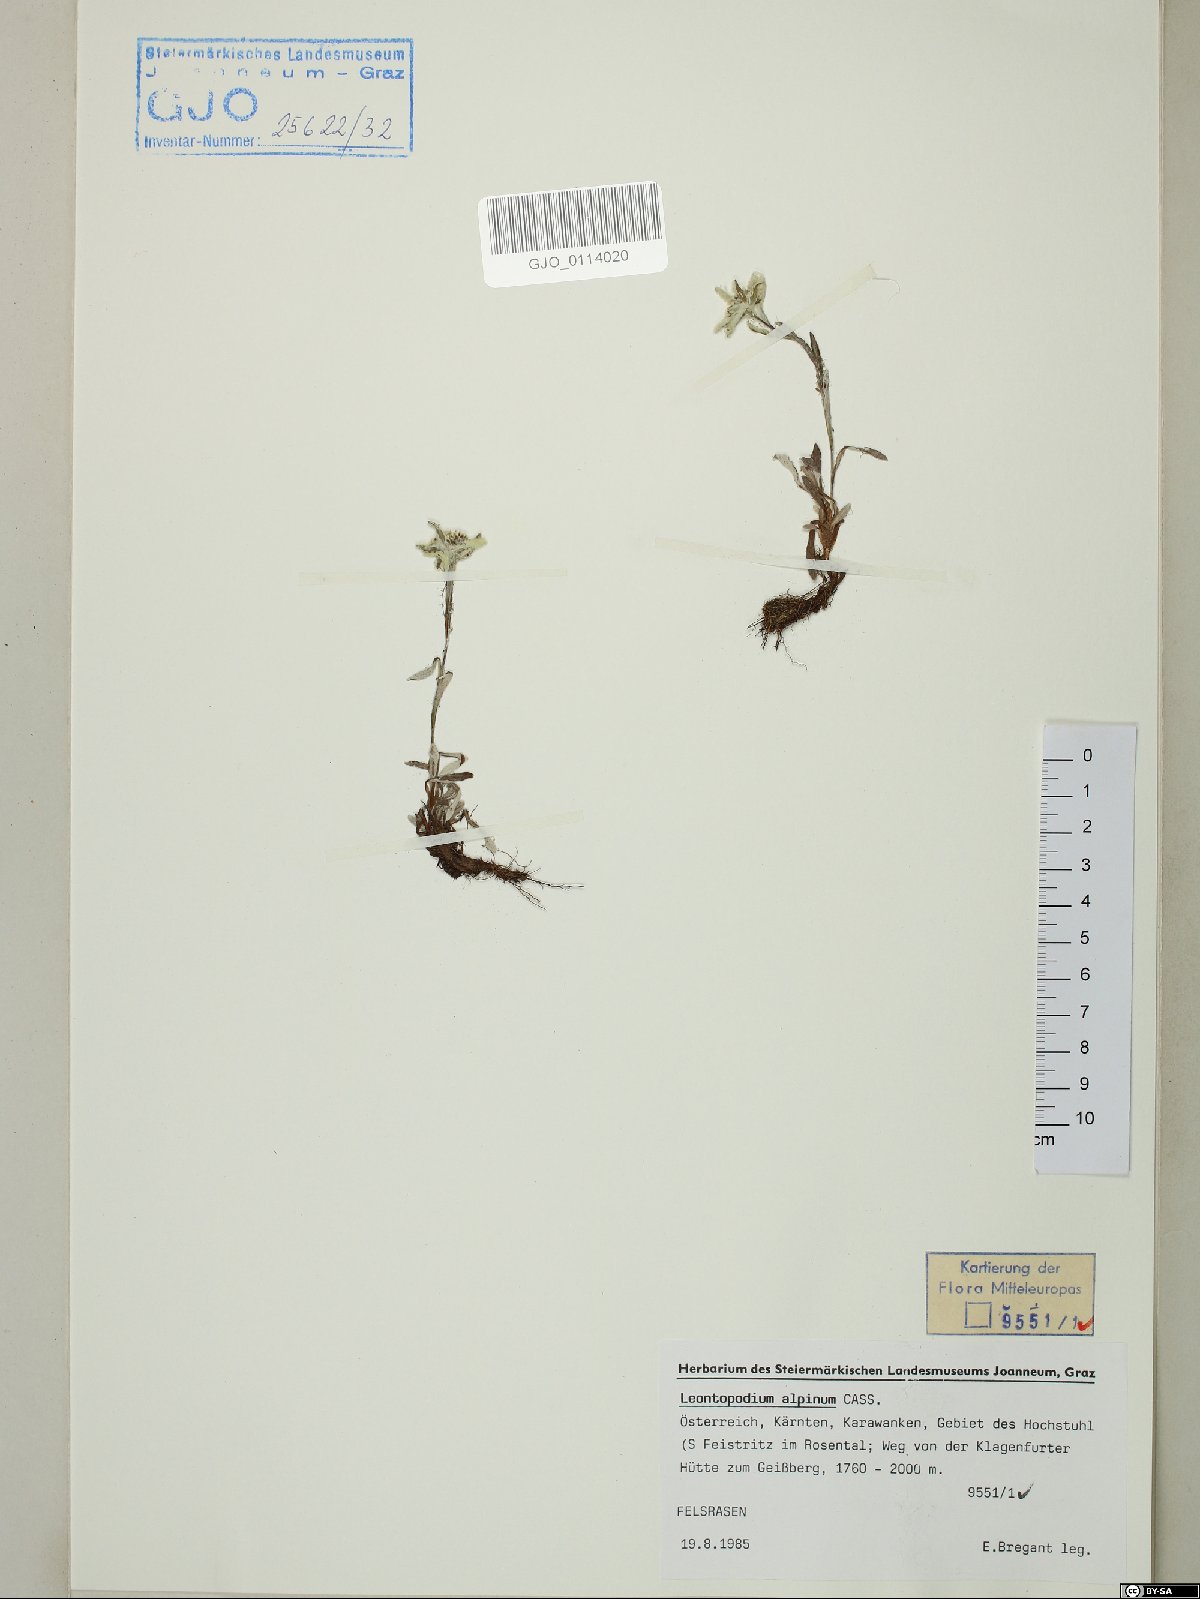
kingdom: Plantae
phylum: Tracheophyta
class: Magnoliopsida
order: Asterales
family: Asteraceae
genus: Leontopodium
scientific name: Leontopodium nivale
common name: Edelweiss
